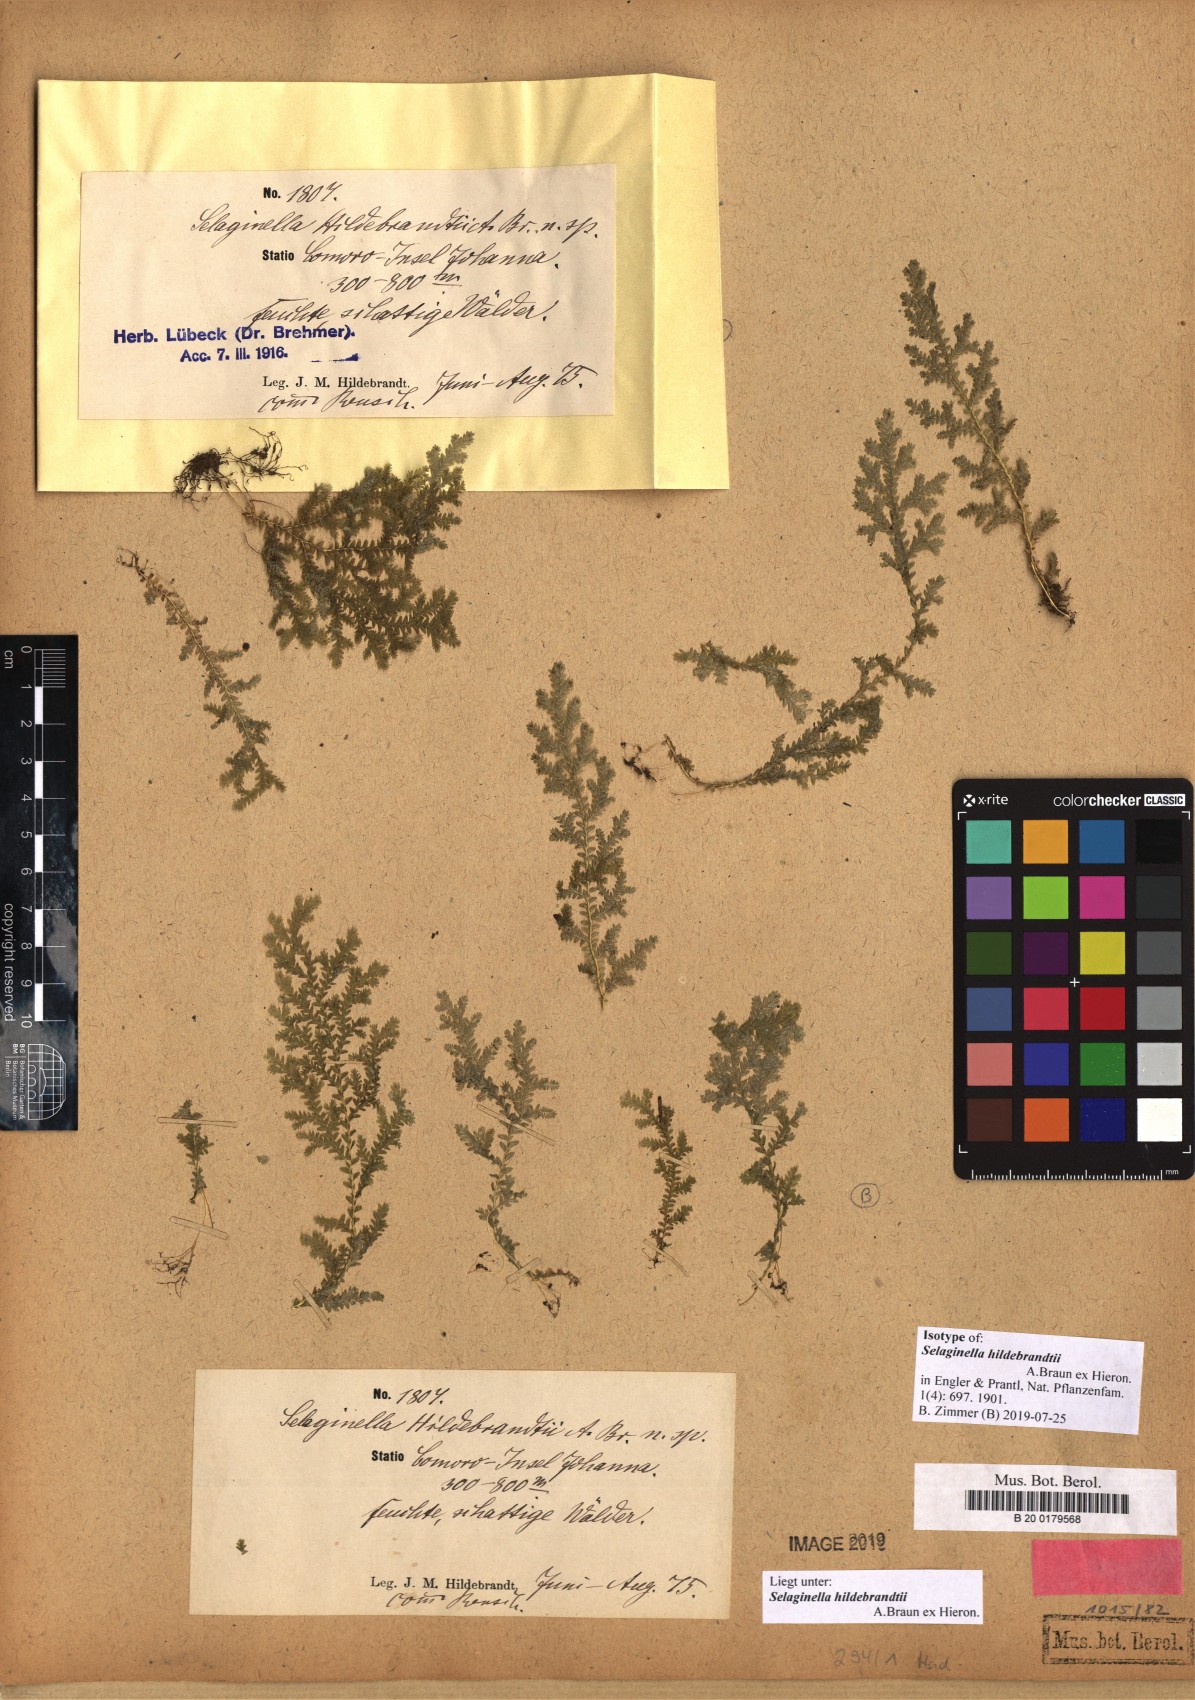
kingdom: Plantae
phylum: Tracheophyta
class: Lycopodiopsida
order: Selaginellales
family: Selaginellaceae
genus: Selaginella
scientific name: Selaginella hildebrandtii
